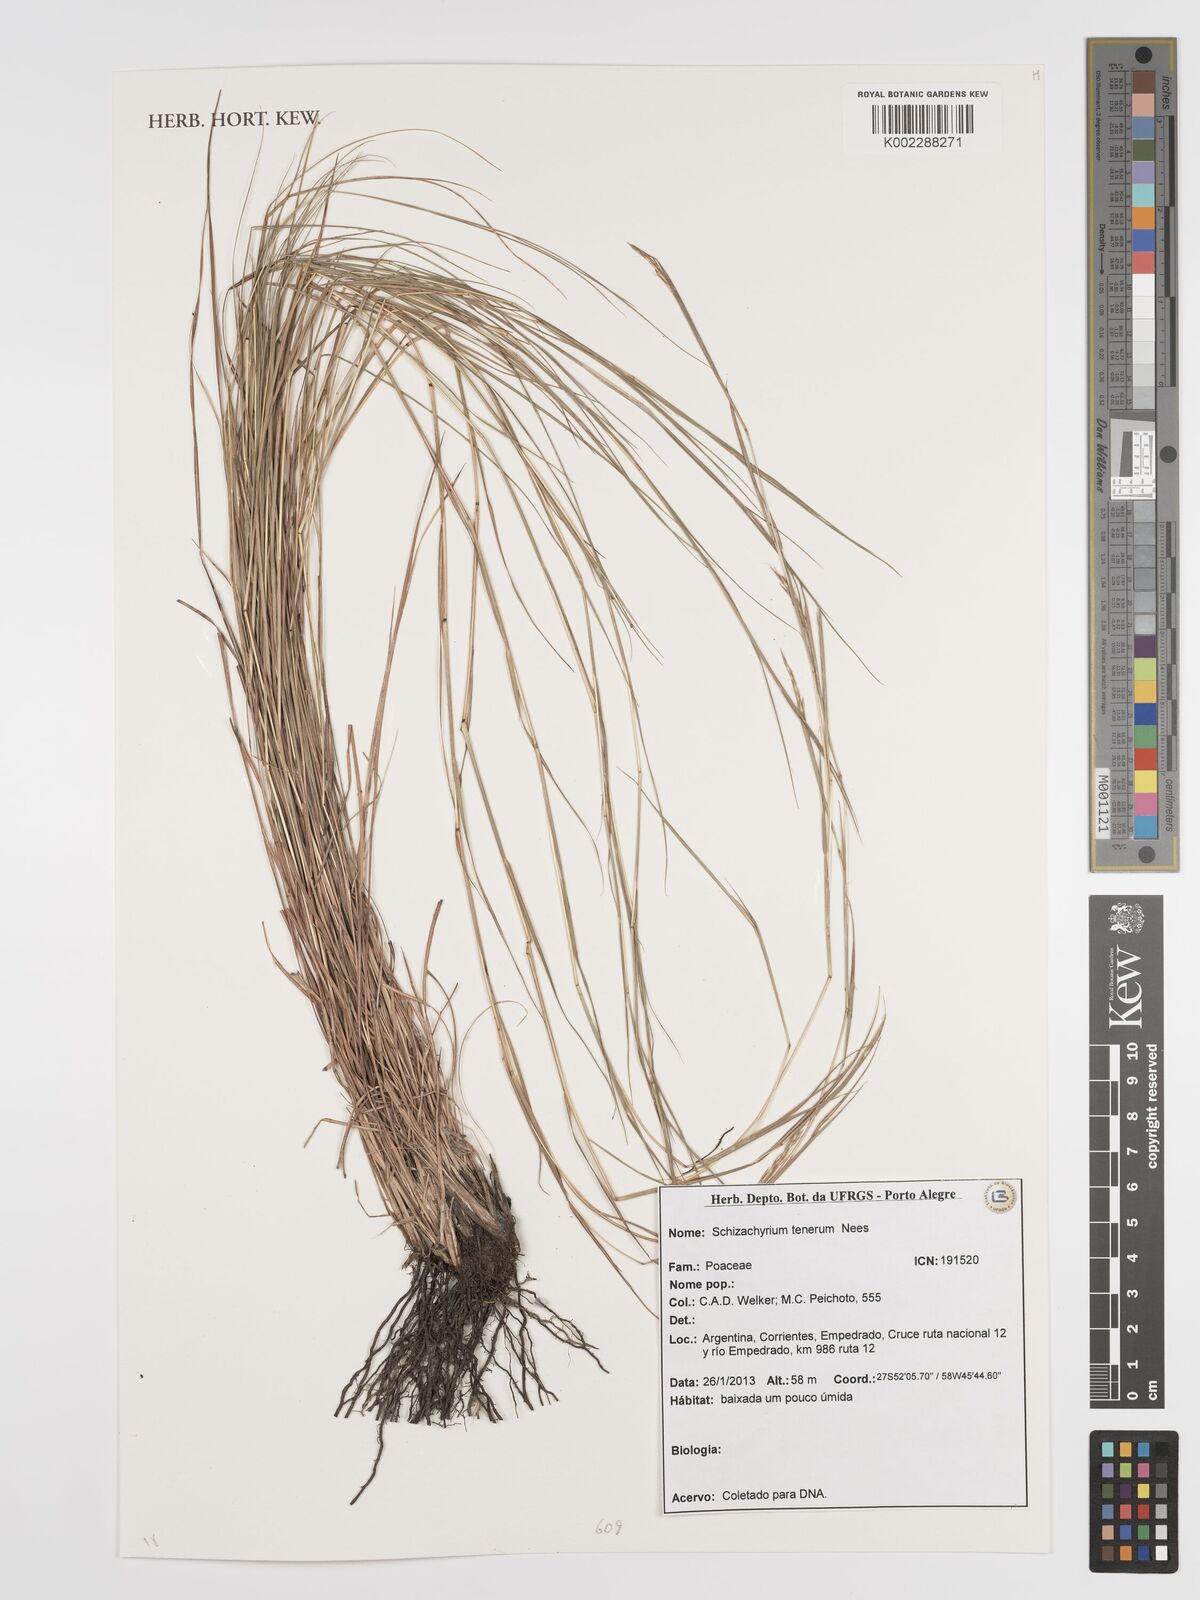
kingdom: Plantae
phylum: Tracheophyta
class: Liliopsida
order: Poales
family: Poaceae
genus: Andropogon
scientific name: Andropogon tener
